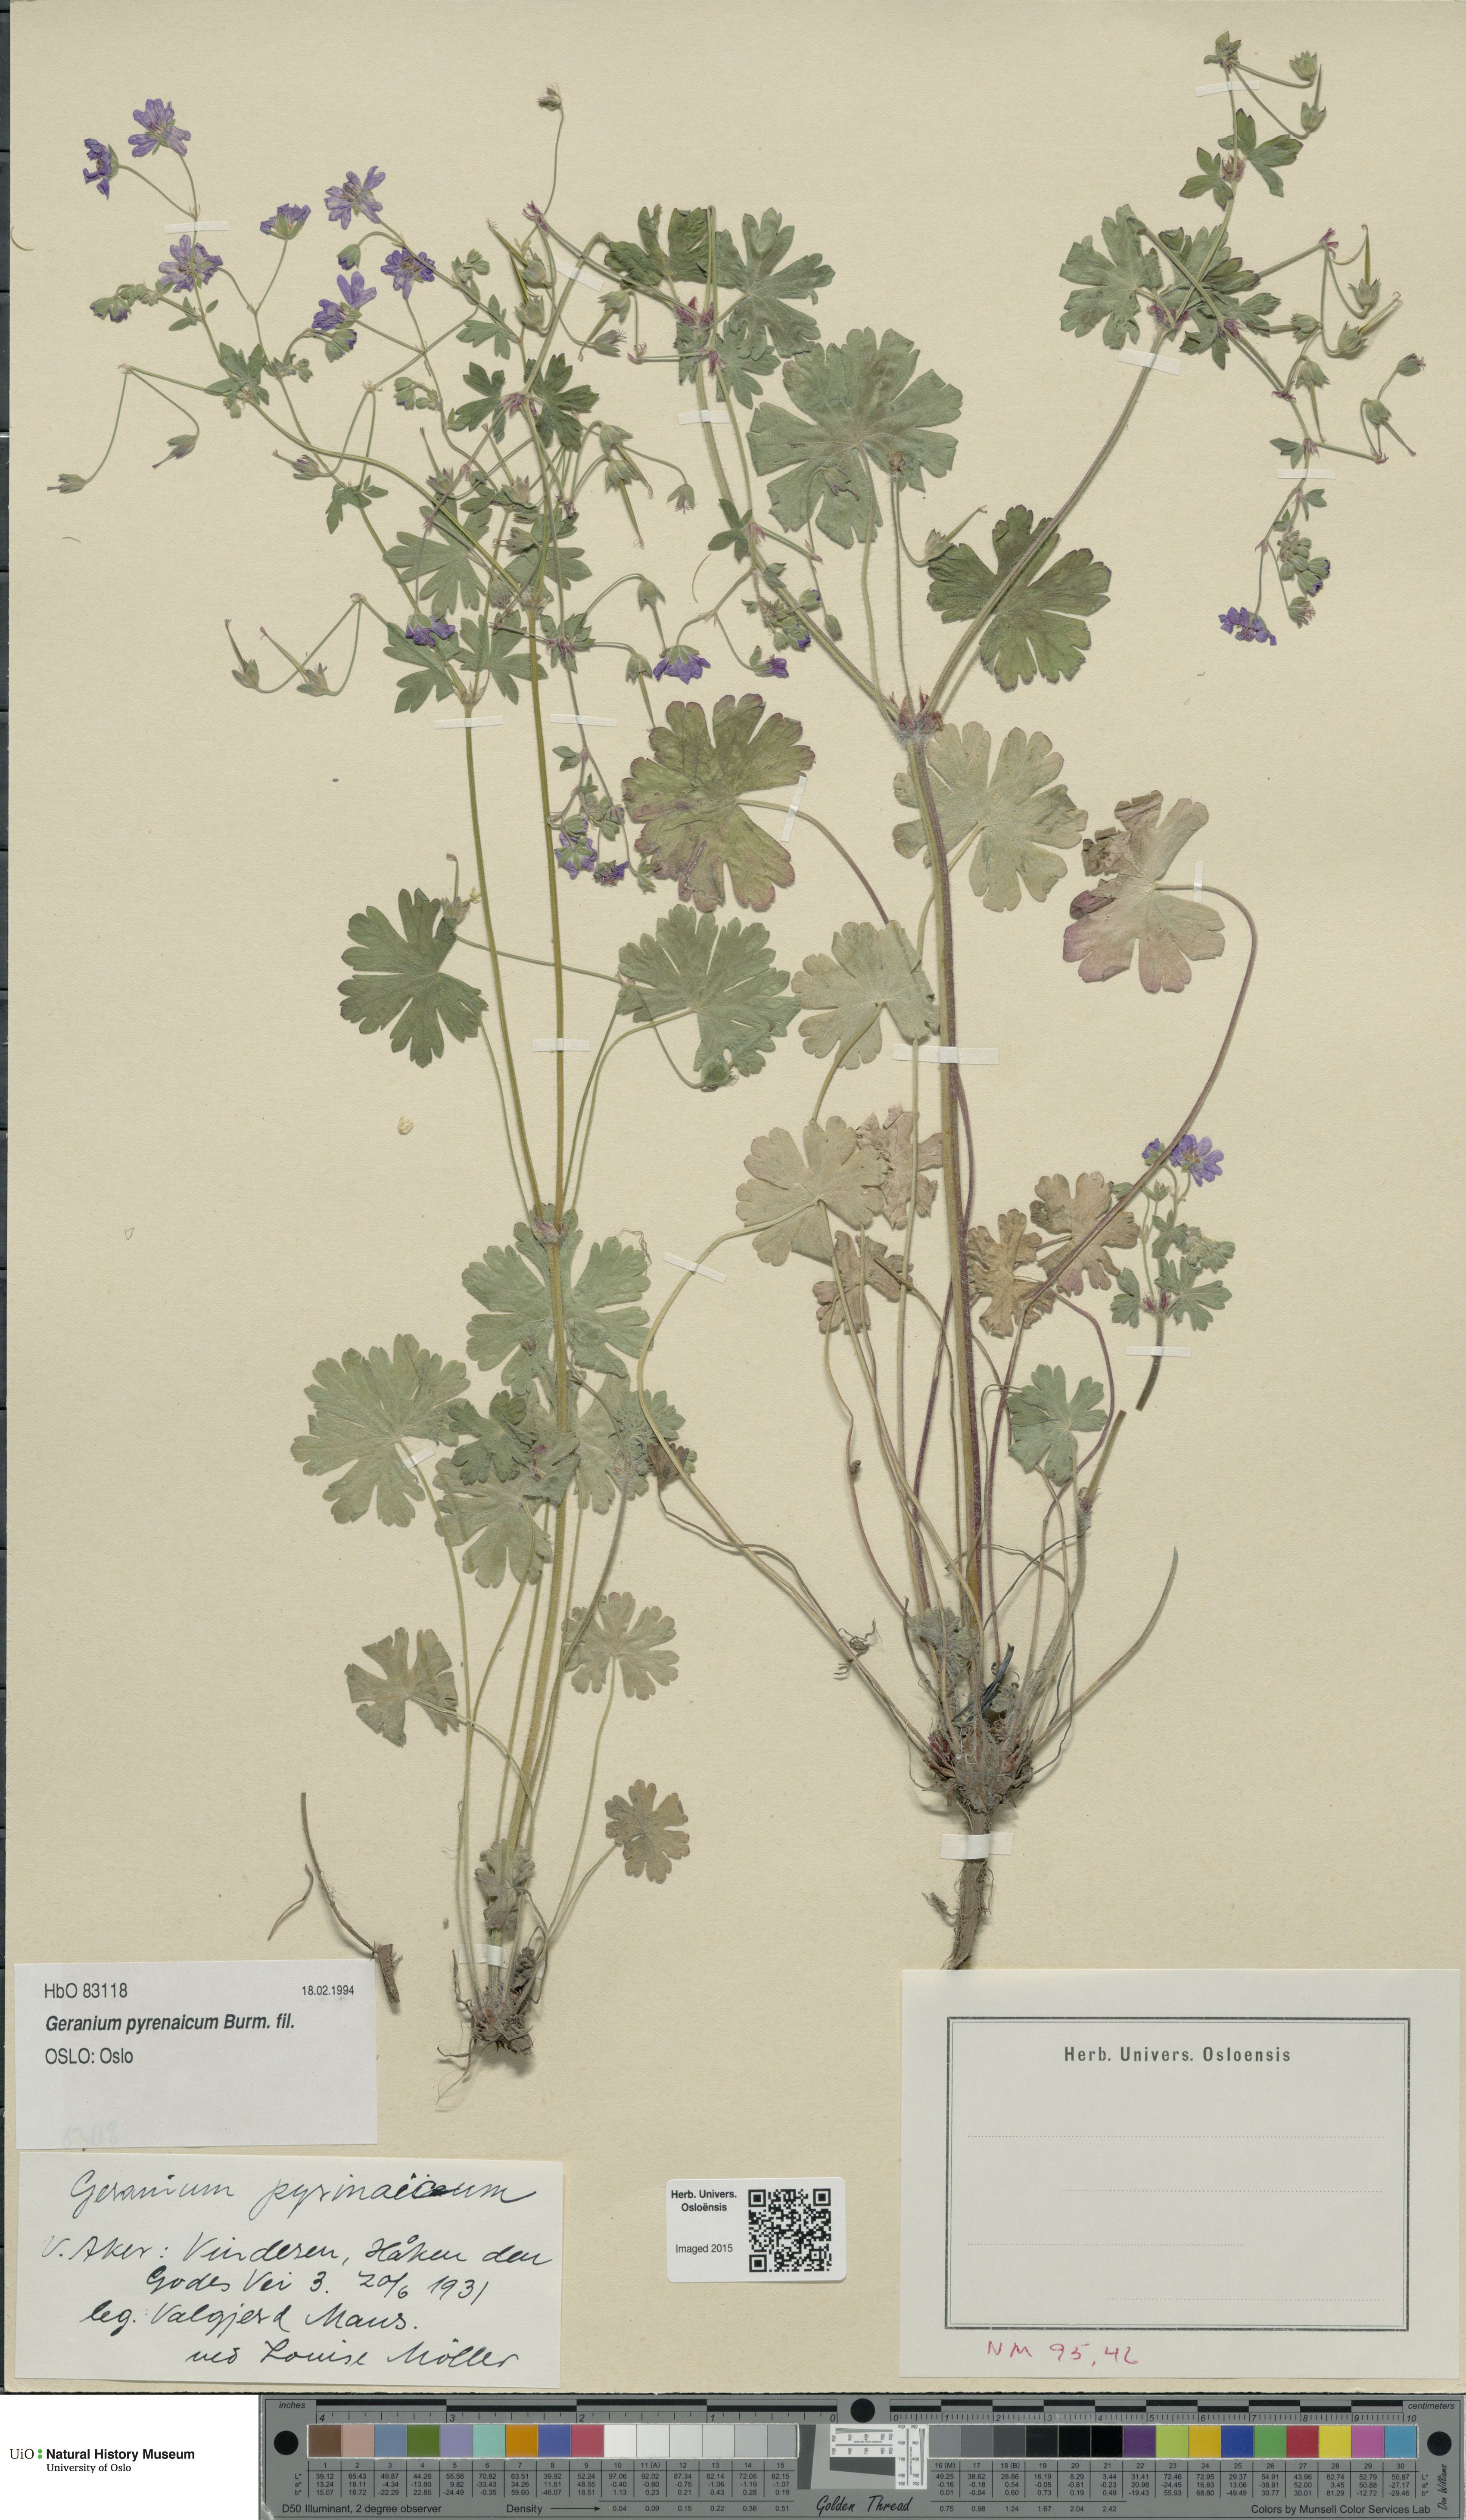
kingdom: Plantae
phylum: Tracheophyta
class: Magnoliopsida
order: Geraniales
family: Geraniaceae
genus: Geranium
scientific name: Geranium pyrenaicum
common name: Hedgerow crane's-bill
